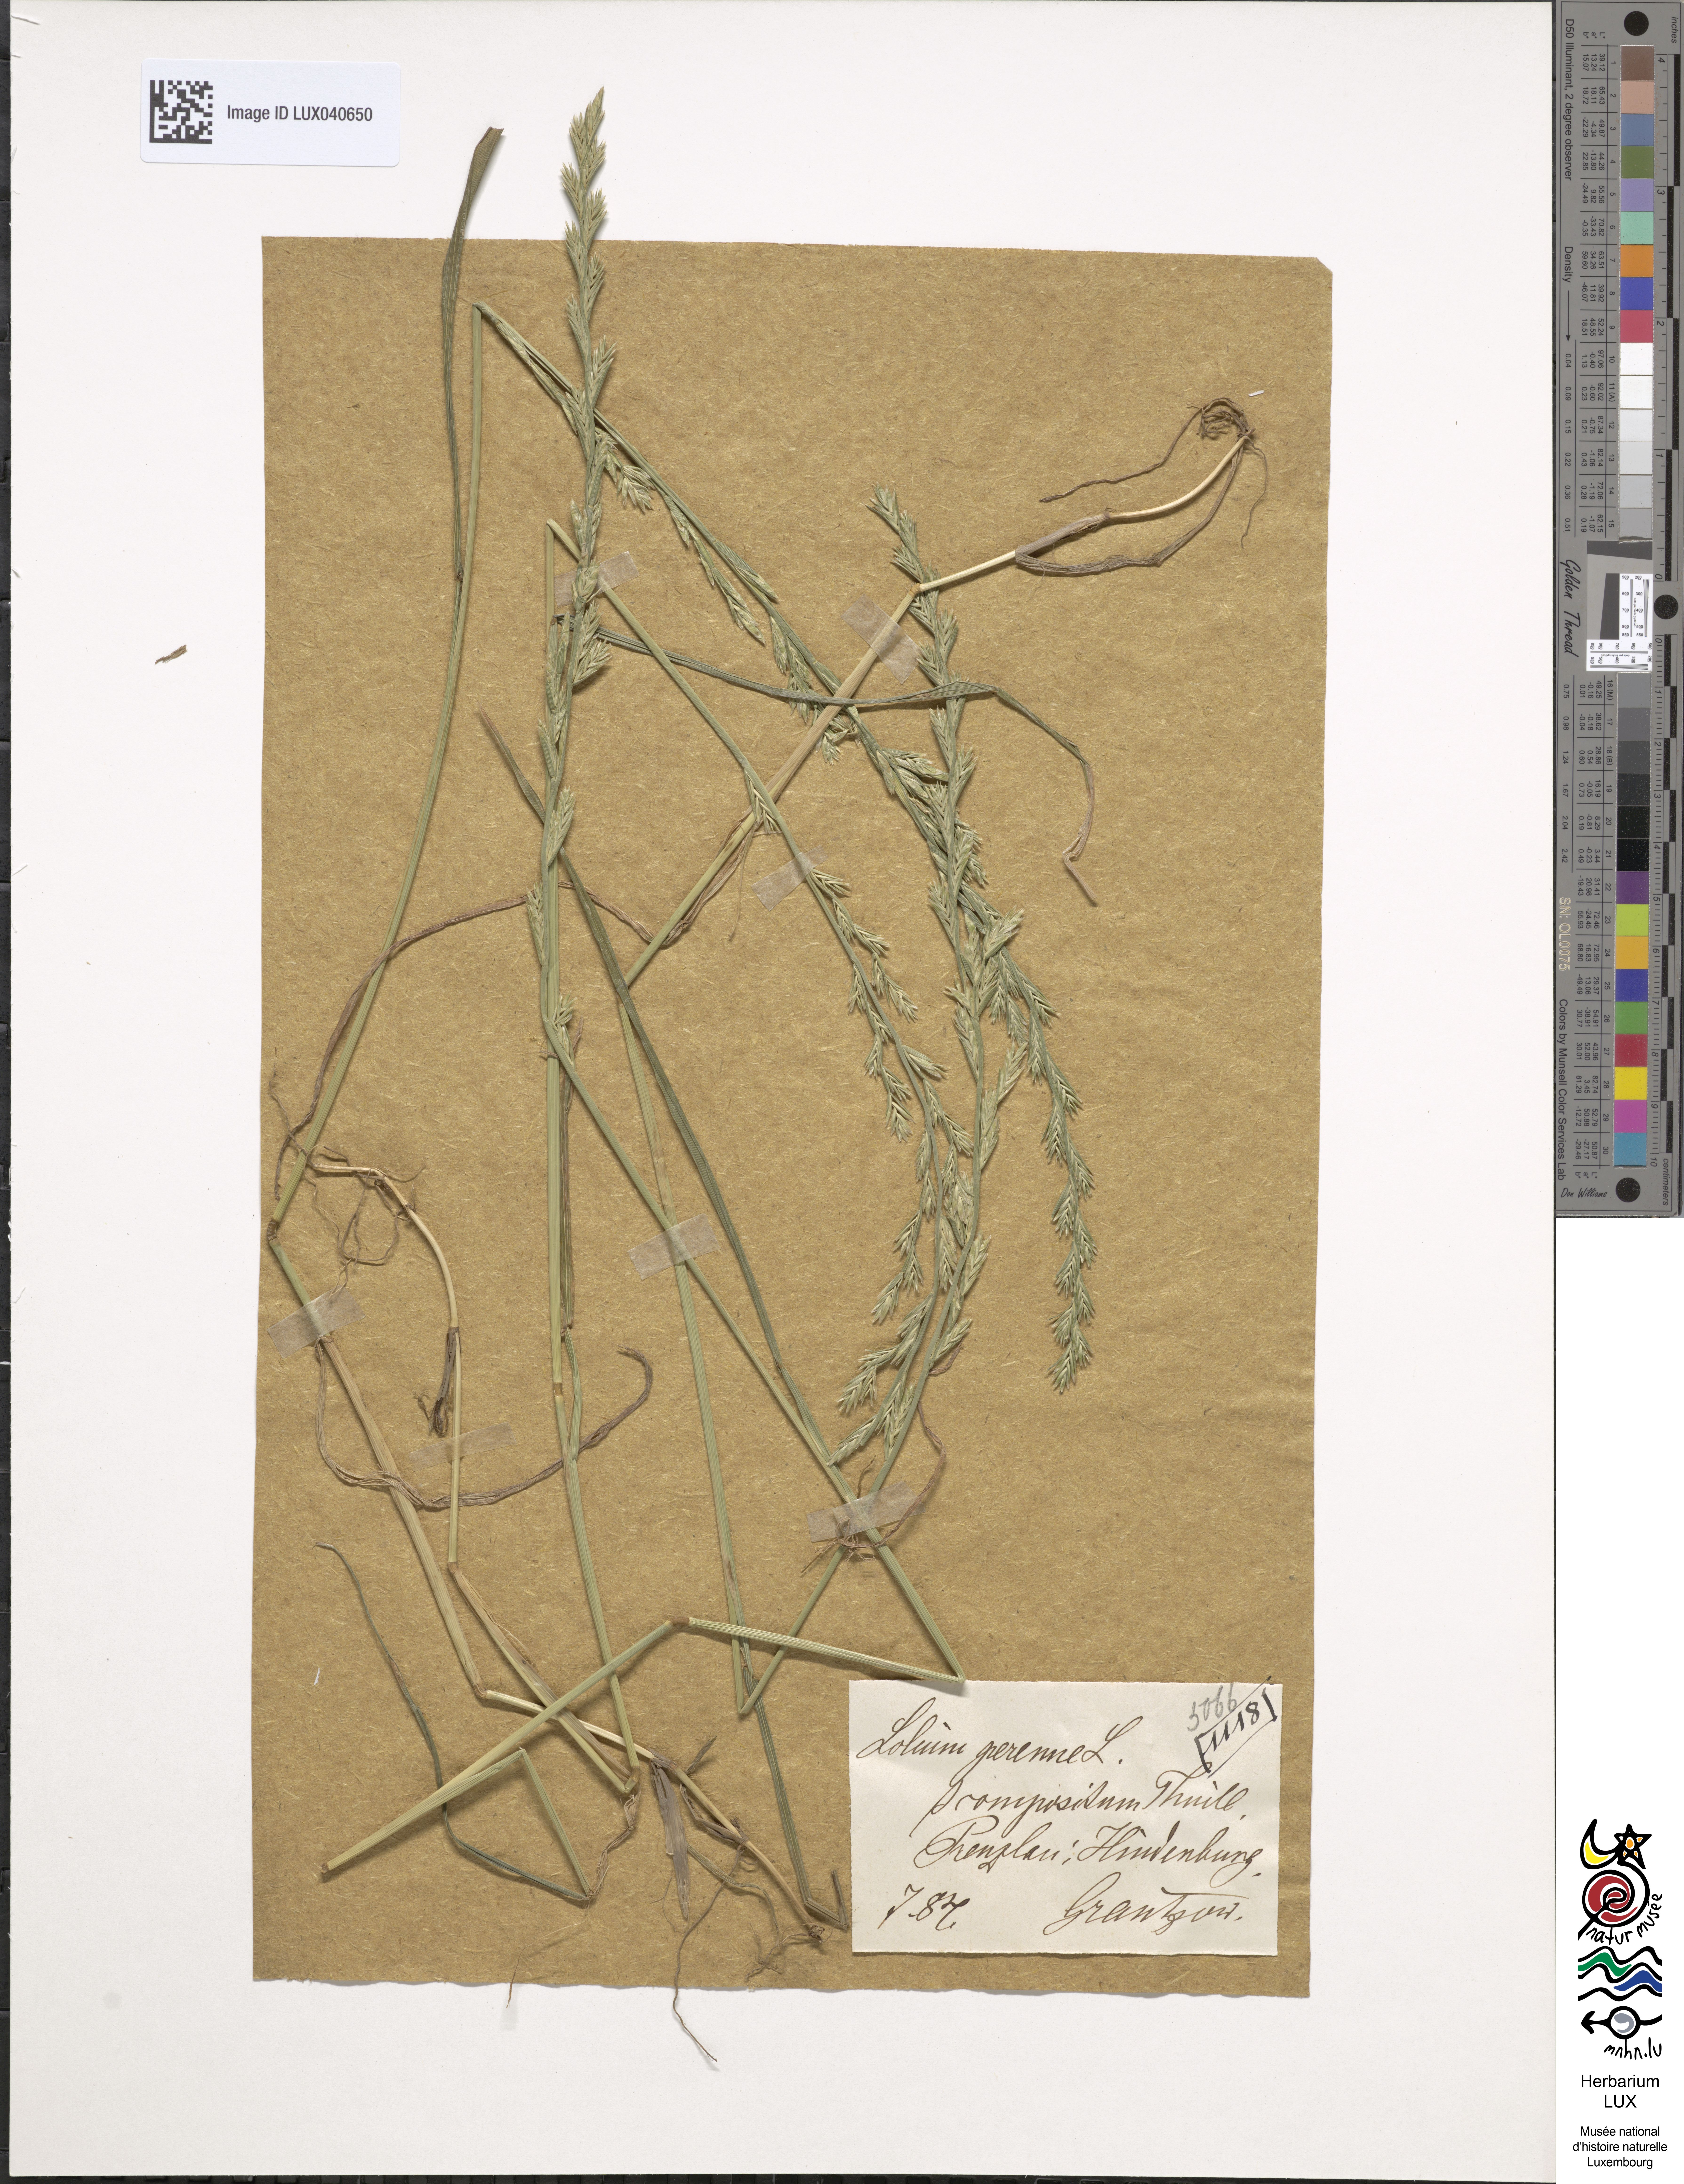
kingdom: Plantae
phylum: Tracheophyta
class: Liliopsida
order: Poales
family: Poaceae
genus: Lolium
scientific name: Lolium multiflorum
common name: Annual ryegrass
